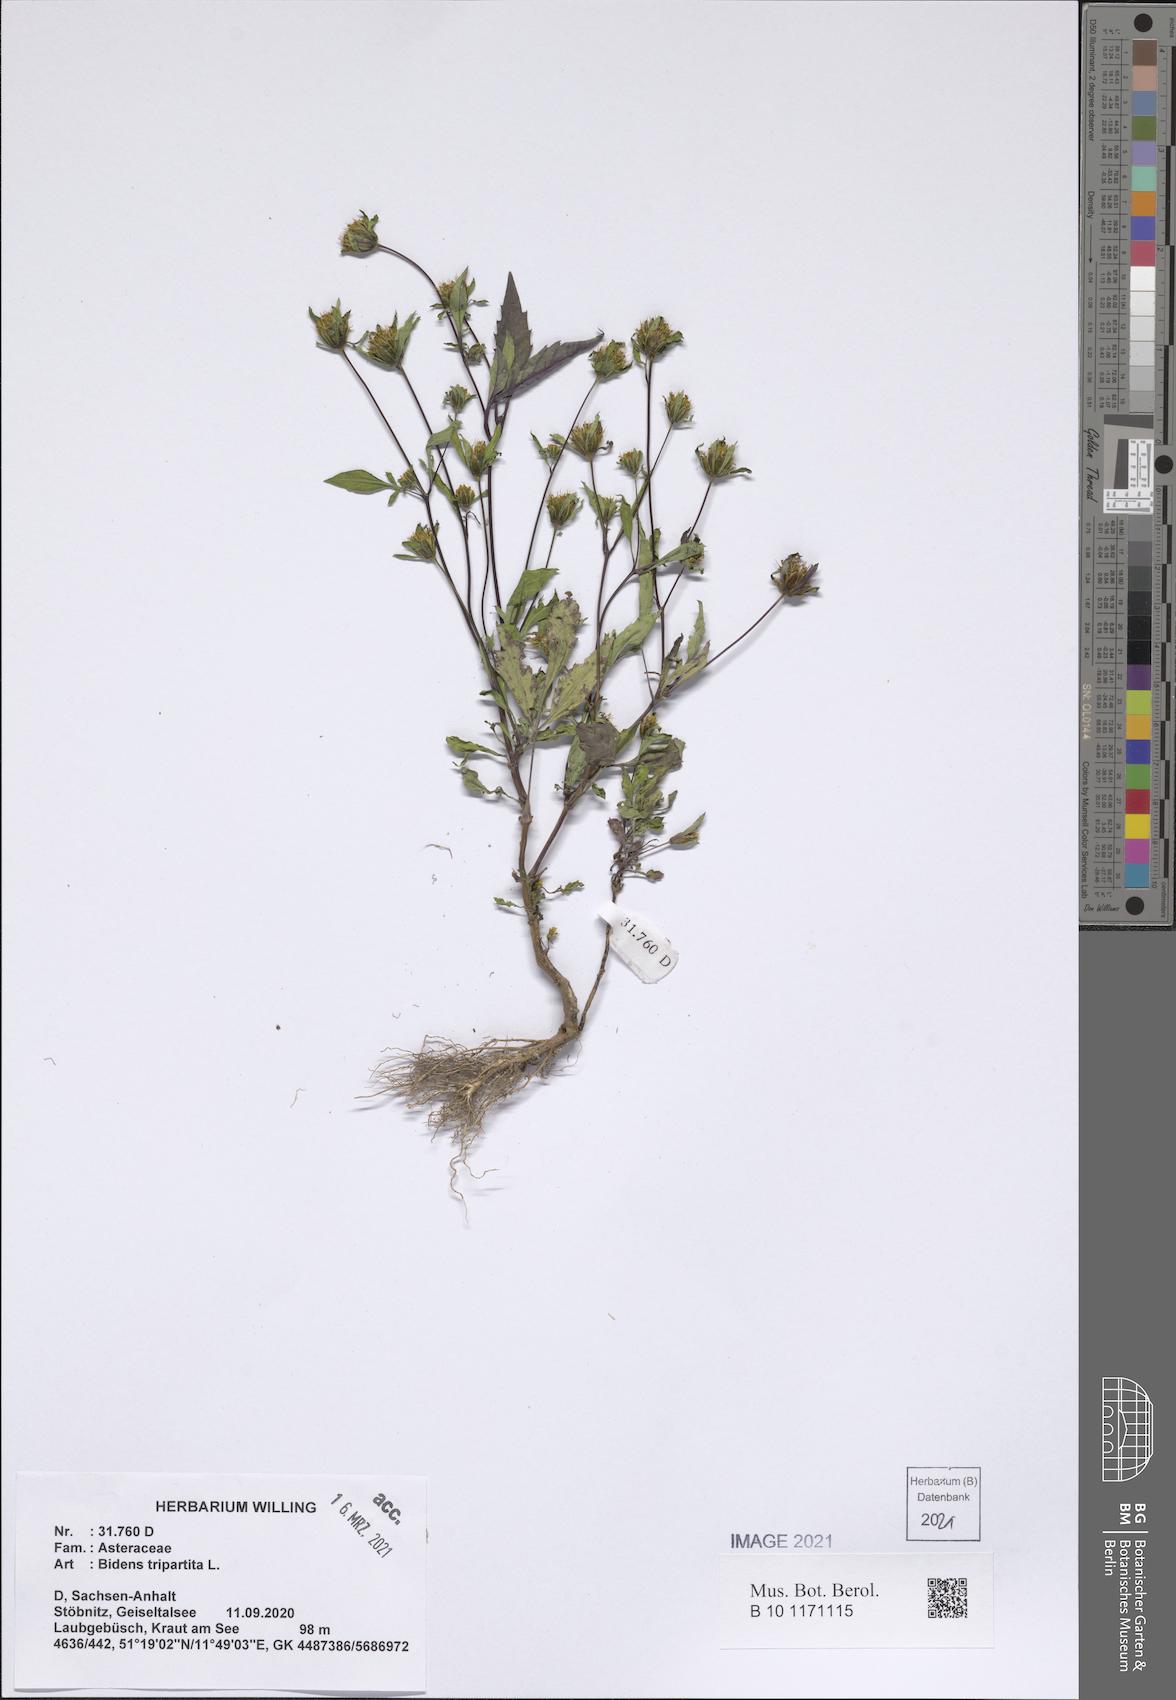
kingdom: Plantae
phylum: Tracheophyta
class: Magnoliopsida
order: Asterales
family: Asteraceae
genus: Bidens
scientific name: Bidens tripartita
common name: Trifid bur-marigold
